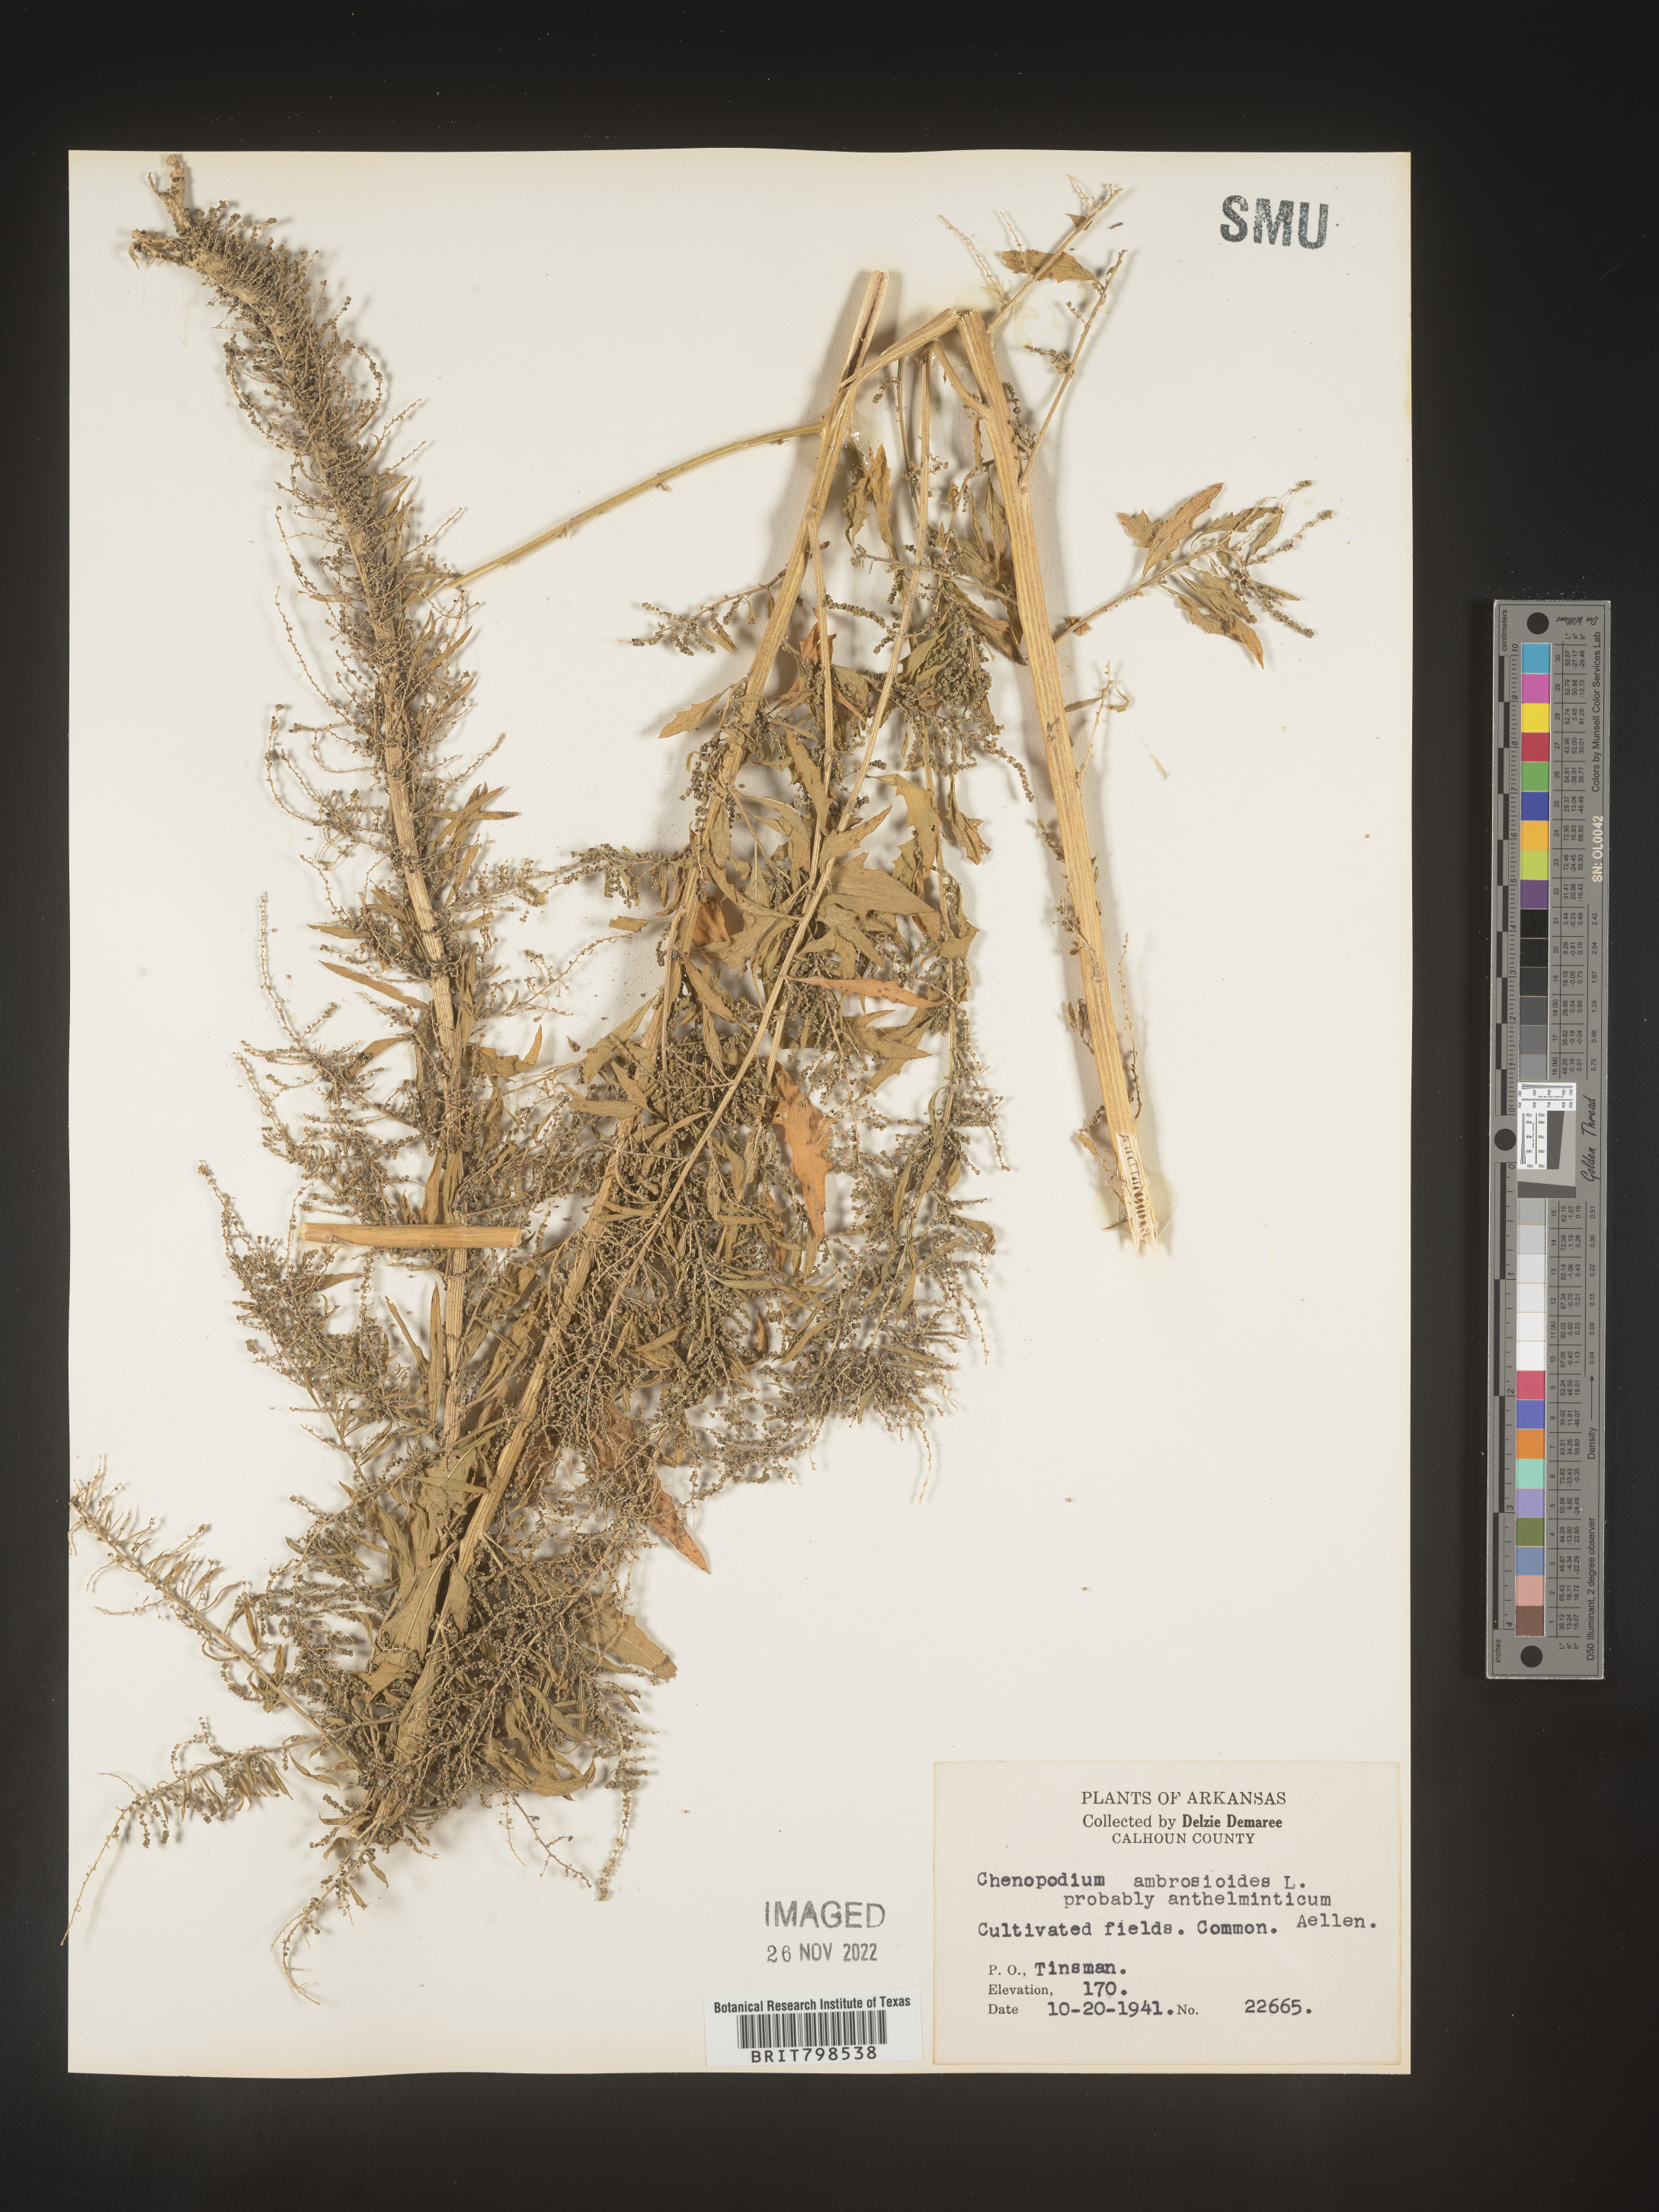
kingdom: Plantae
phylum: Tracheophyta
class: Magnoliopsida
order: Caryophyllales
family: Amaranthaceae
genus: Dysphania
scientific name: Dysphania ambrosioides
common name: Wormseed
